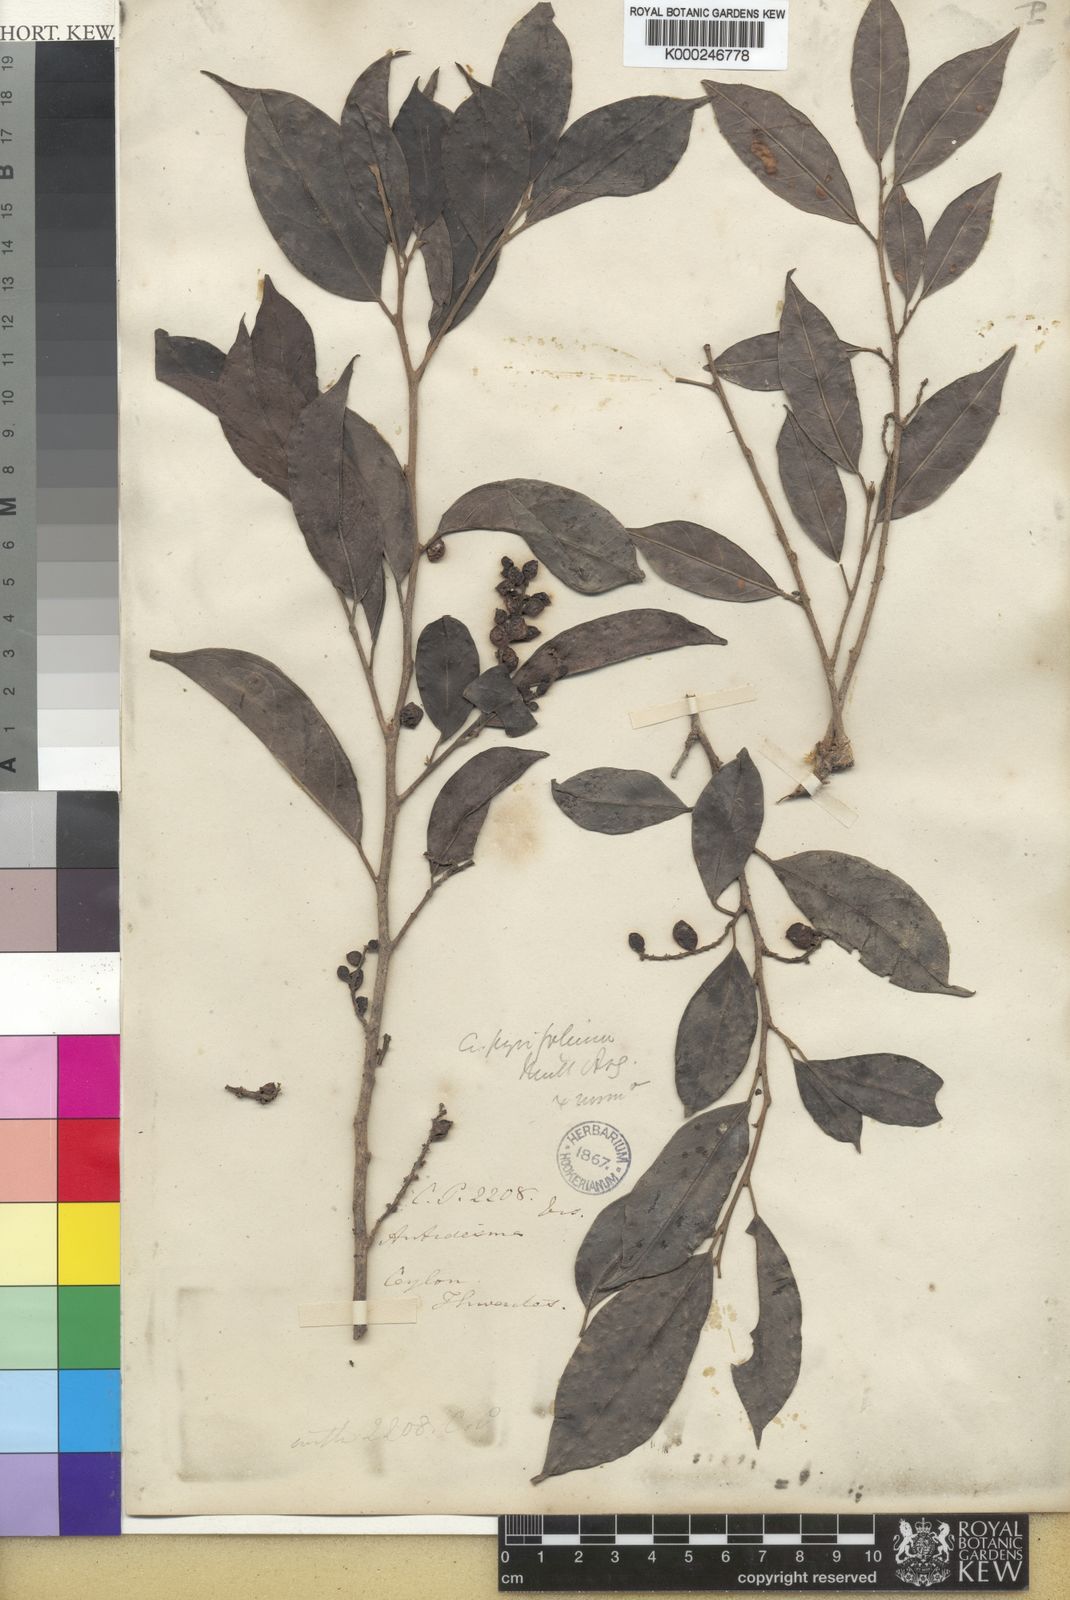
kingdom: Plantae
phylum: Tracheophyta
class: Magnoliopsida
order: Malpighiales
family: Phyllanthaceae
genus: Antidesma
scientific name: Antidesma
